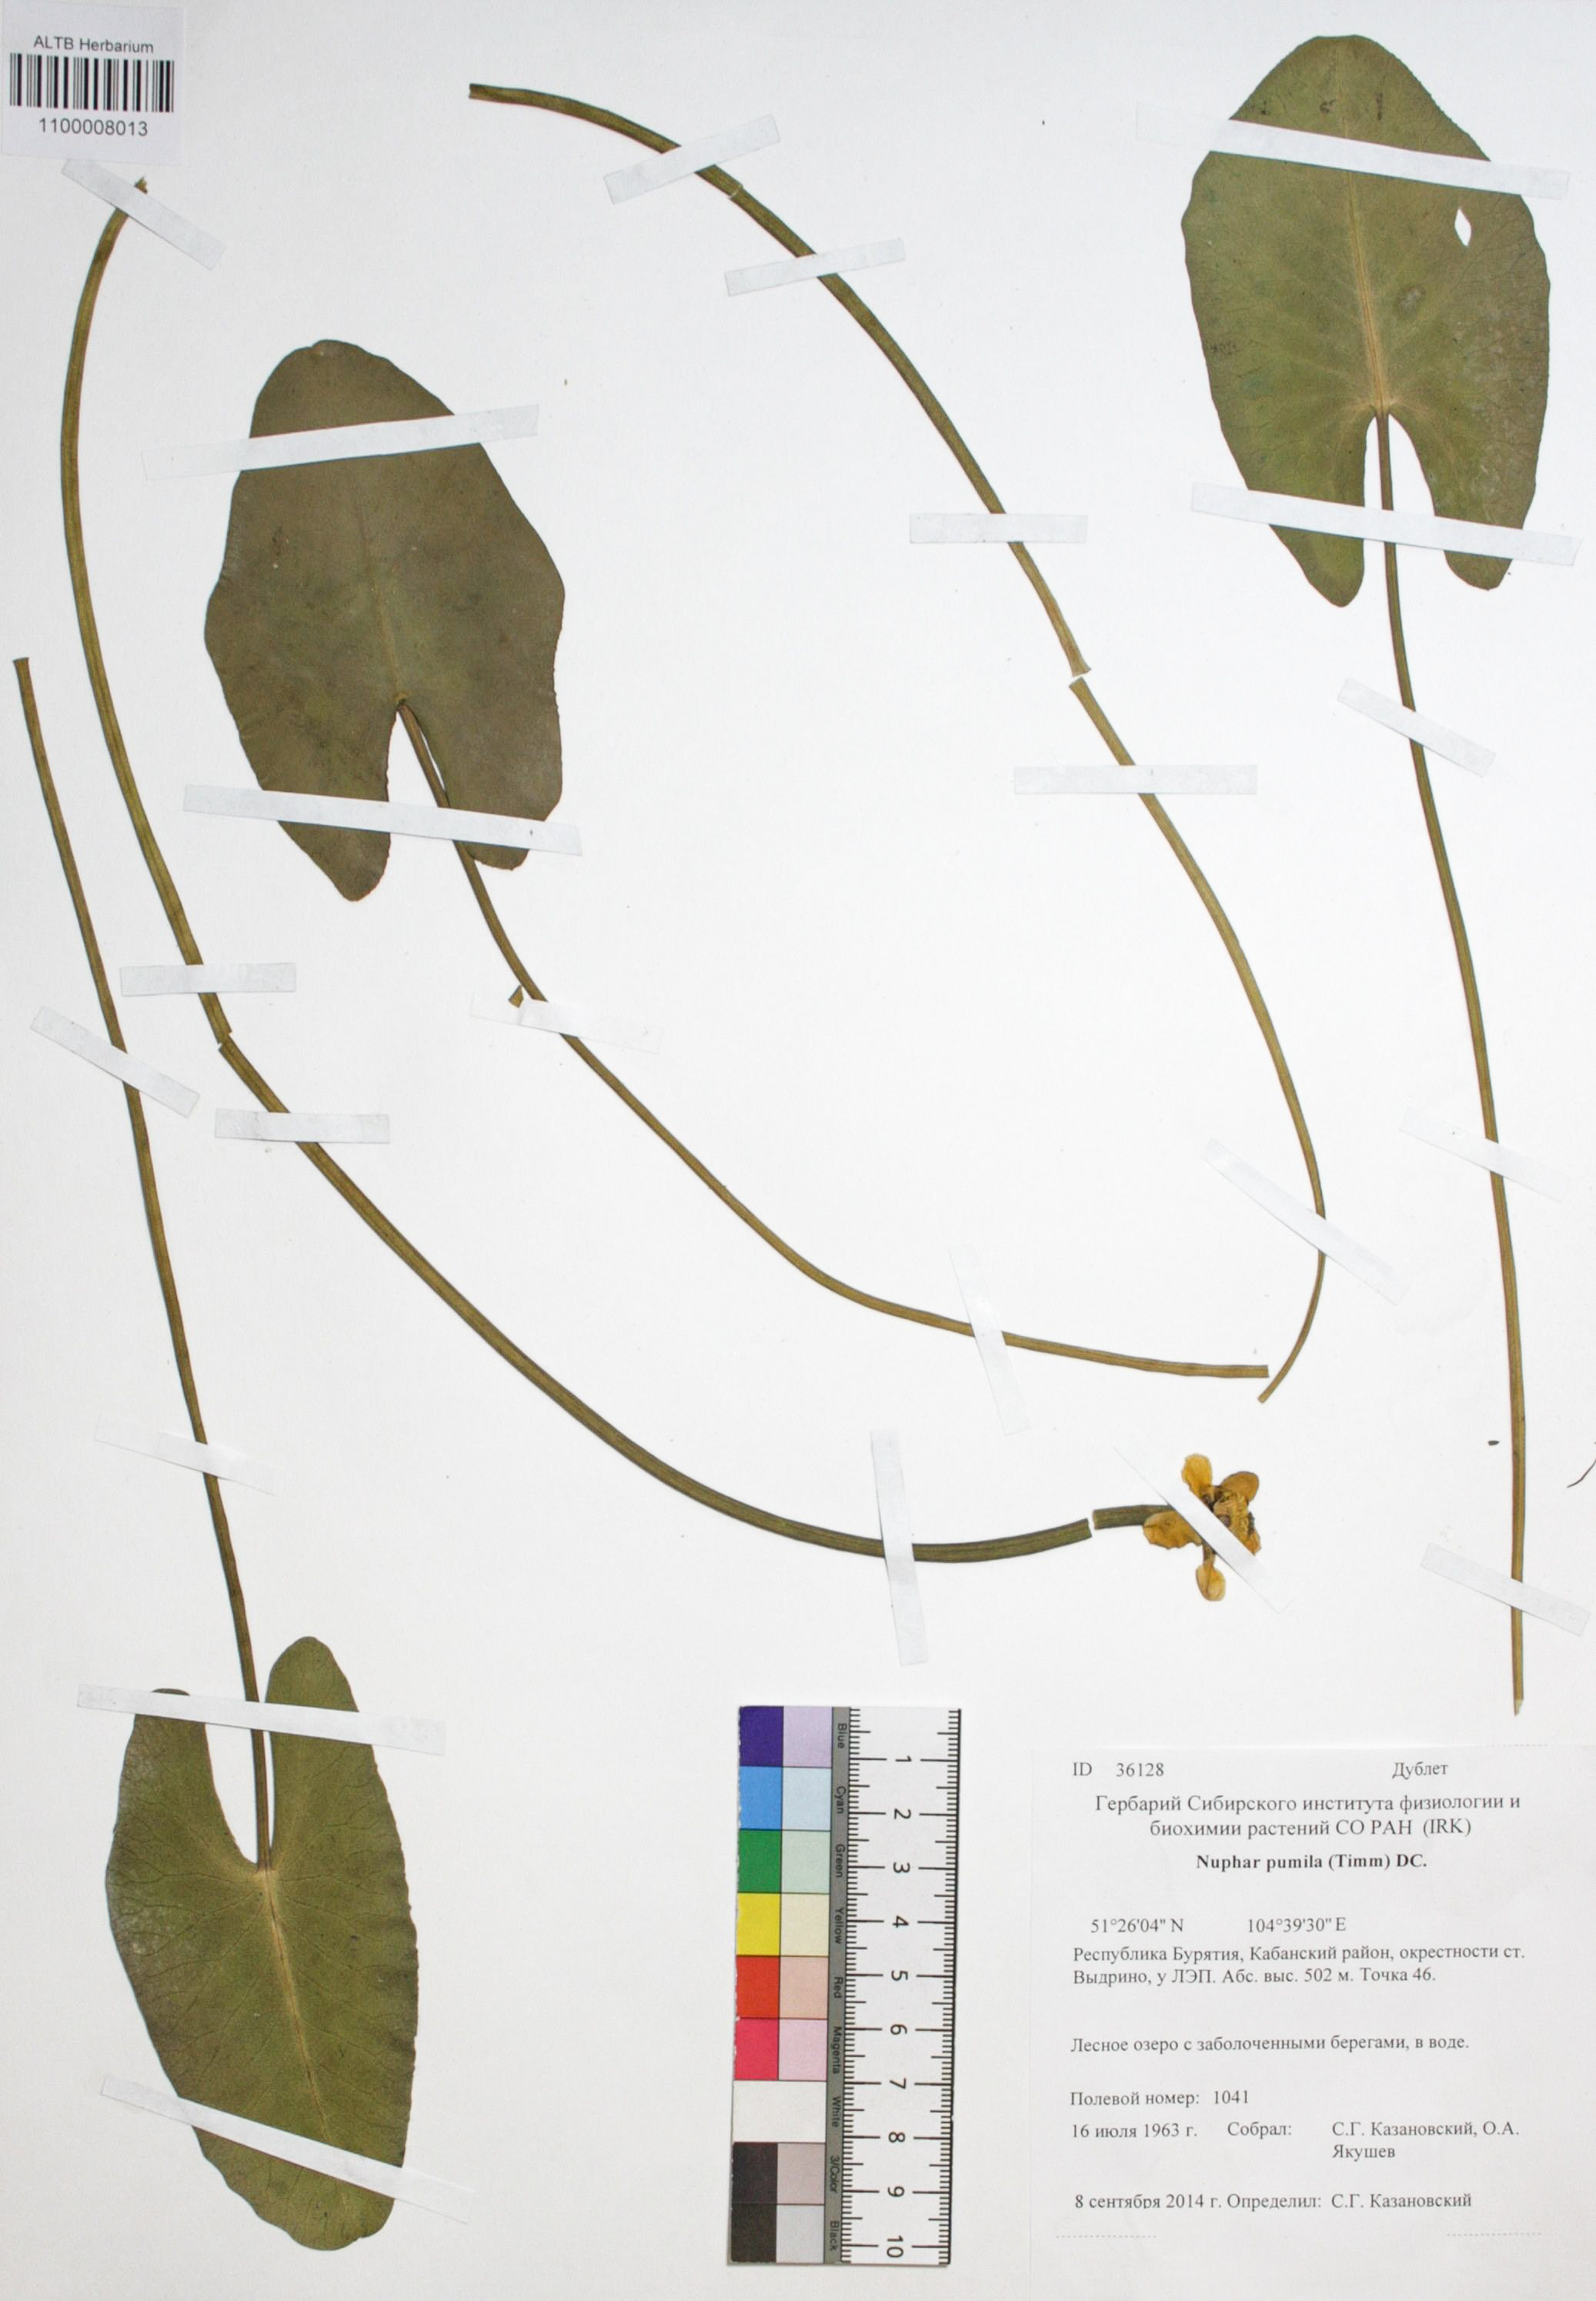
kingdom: Plantae
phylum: Tracheophyta
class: Magnoliopsida
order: Nymphaeales
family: Nymphaeaceae
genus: Nuphar
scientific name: Nuphar pumila
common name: Least water-lily
